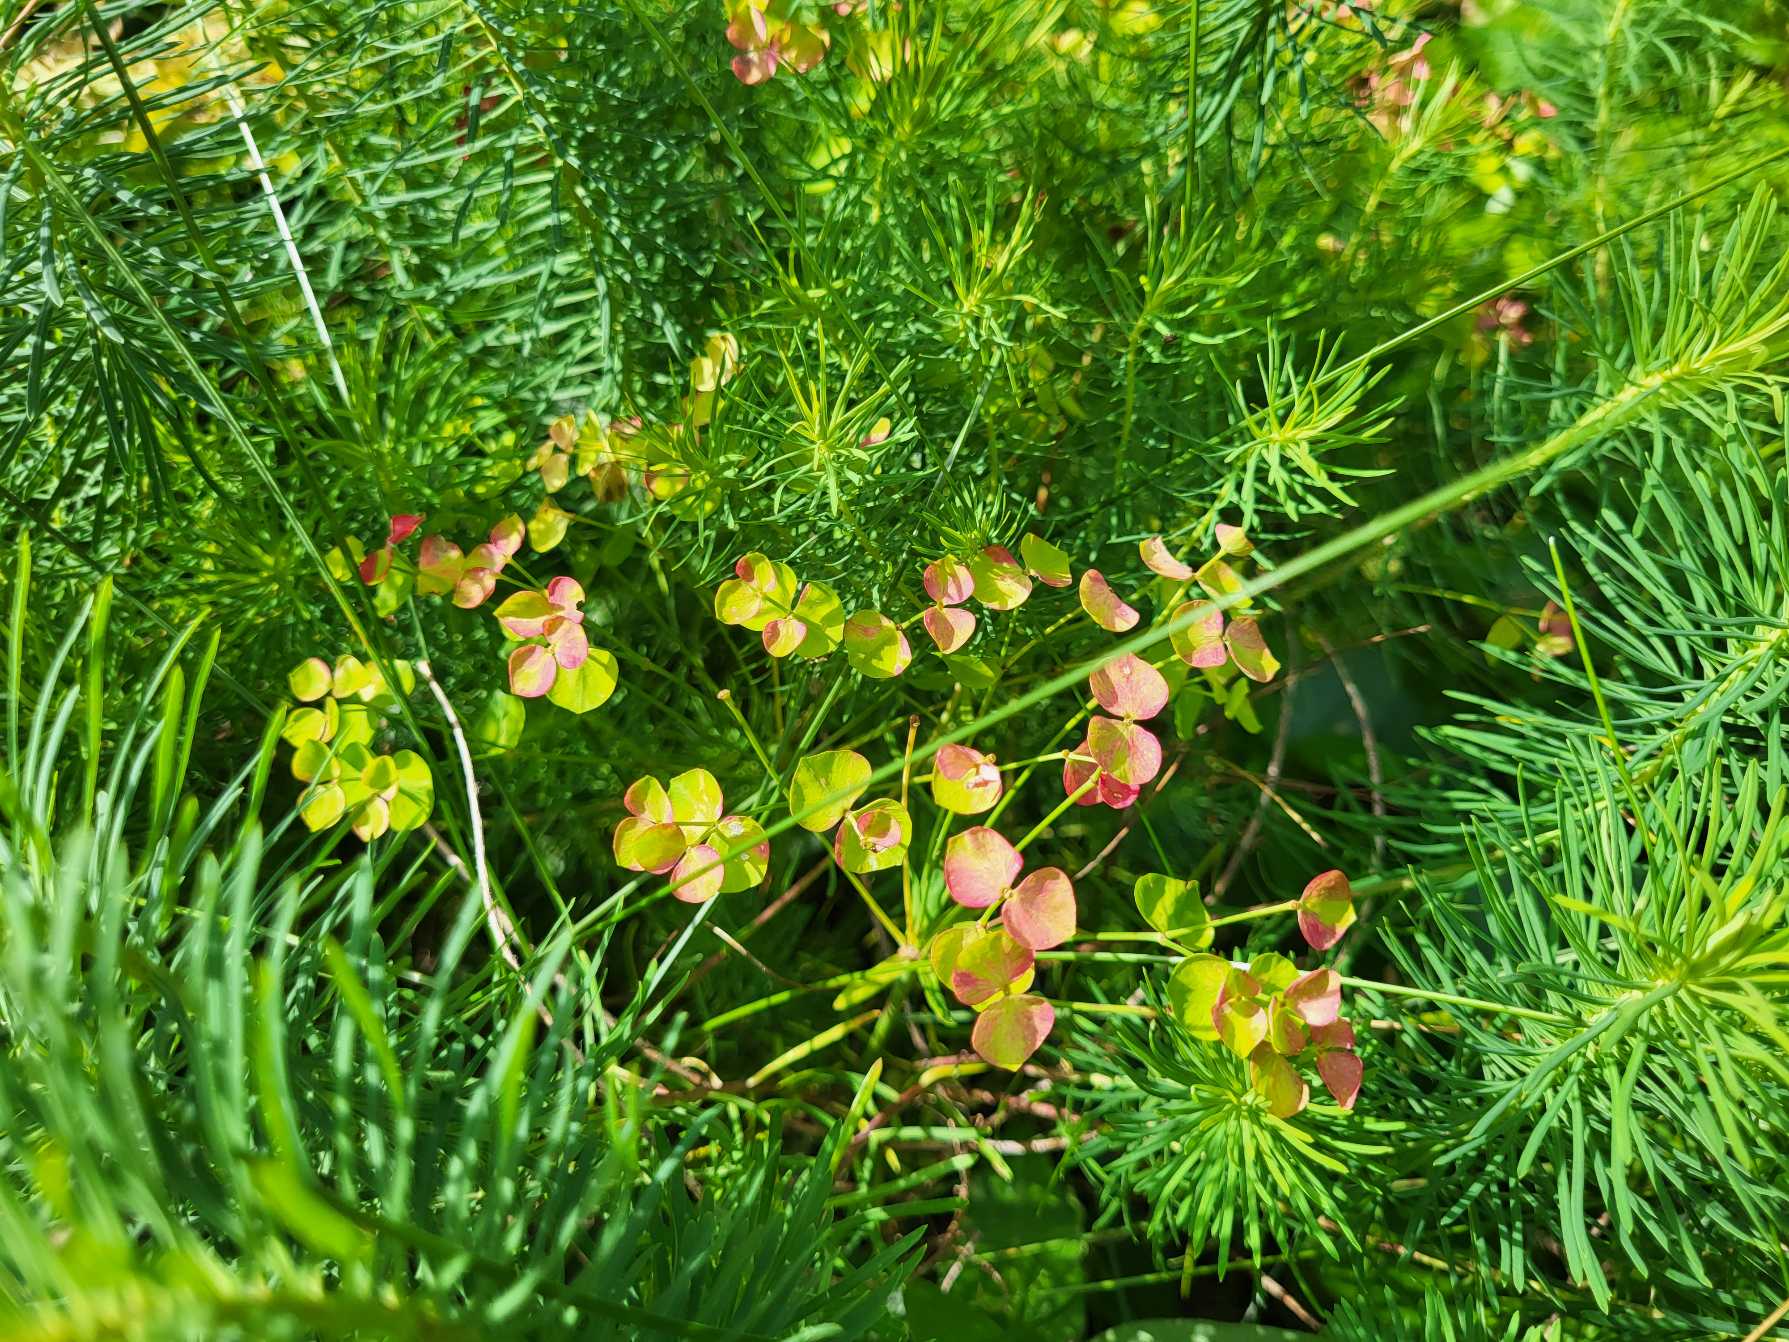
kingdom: Plantae
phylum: Tracheophyta
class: Magnoliopsida
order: Malpighiales
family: Euphorbiaceae
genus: Euphorbia
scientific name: Euphorbia cyparissias
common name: Cypres-vortemælk
